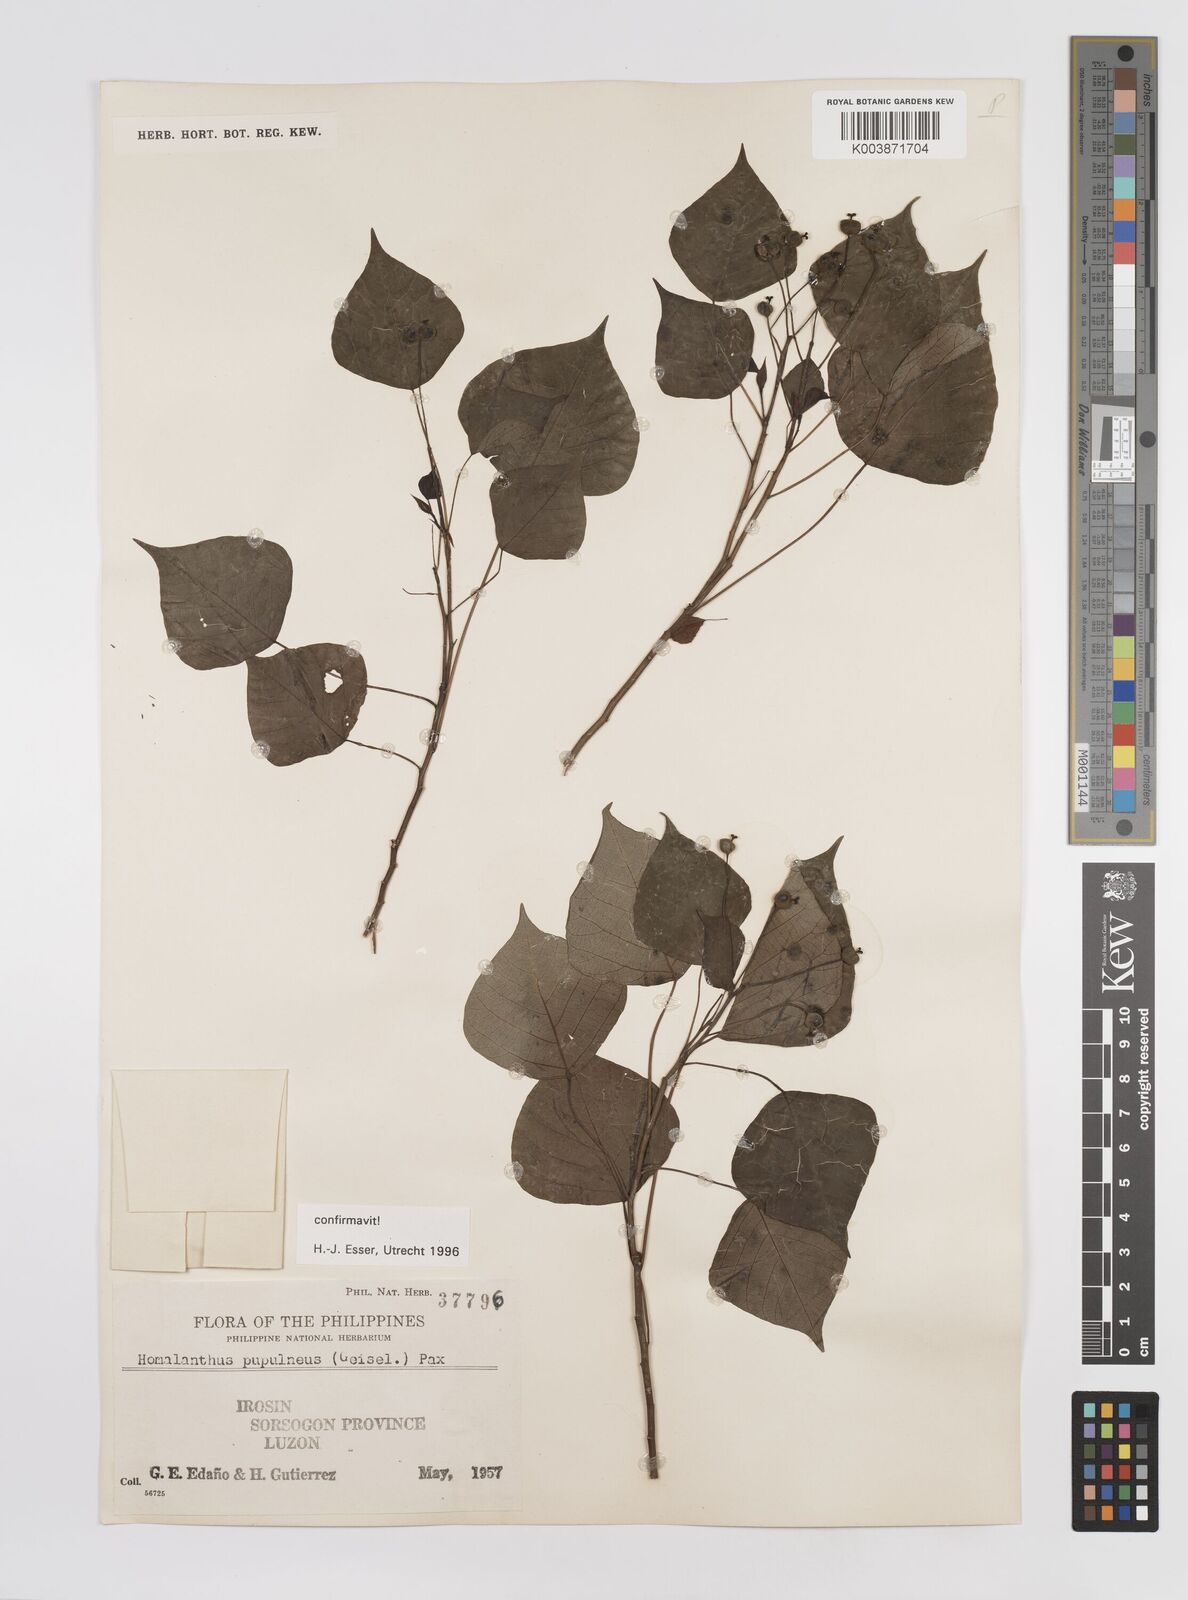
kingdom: Plantae
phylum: Tracheophyta
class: Magnoliopsida
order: Malpighiales
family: Euphorbiaceae
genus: Homalanthus
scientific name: Homalanthus populneus
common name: Spurge
